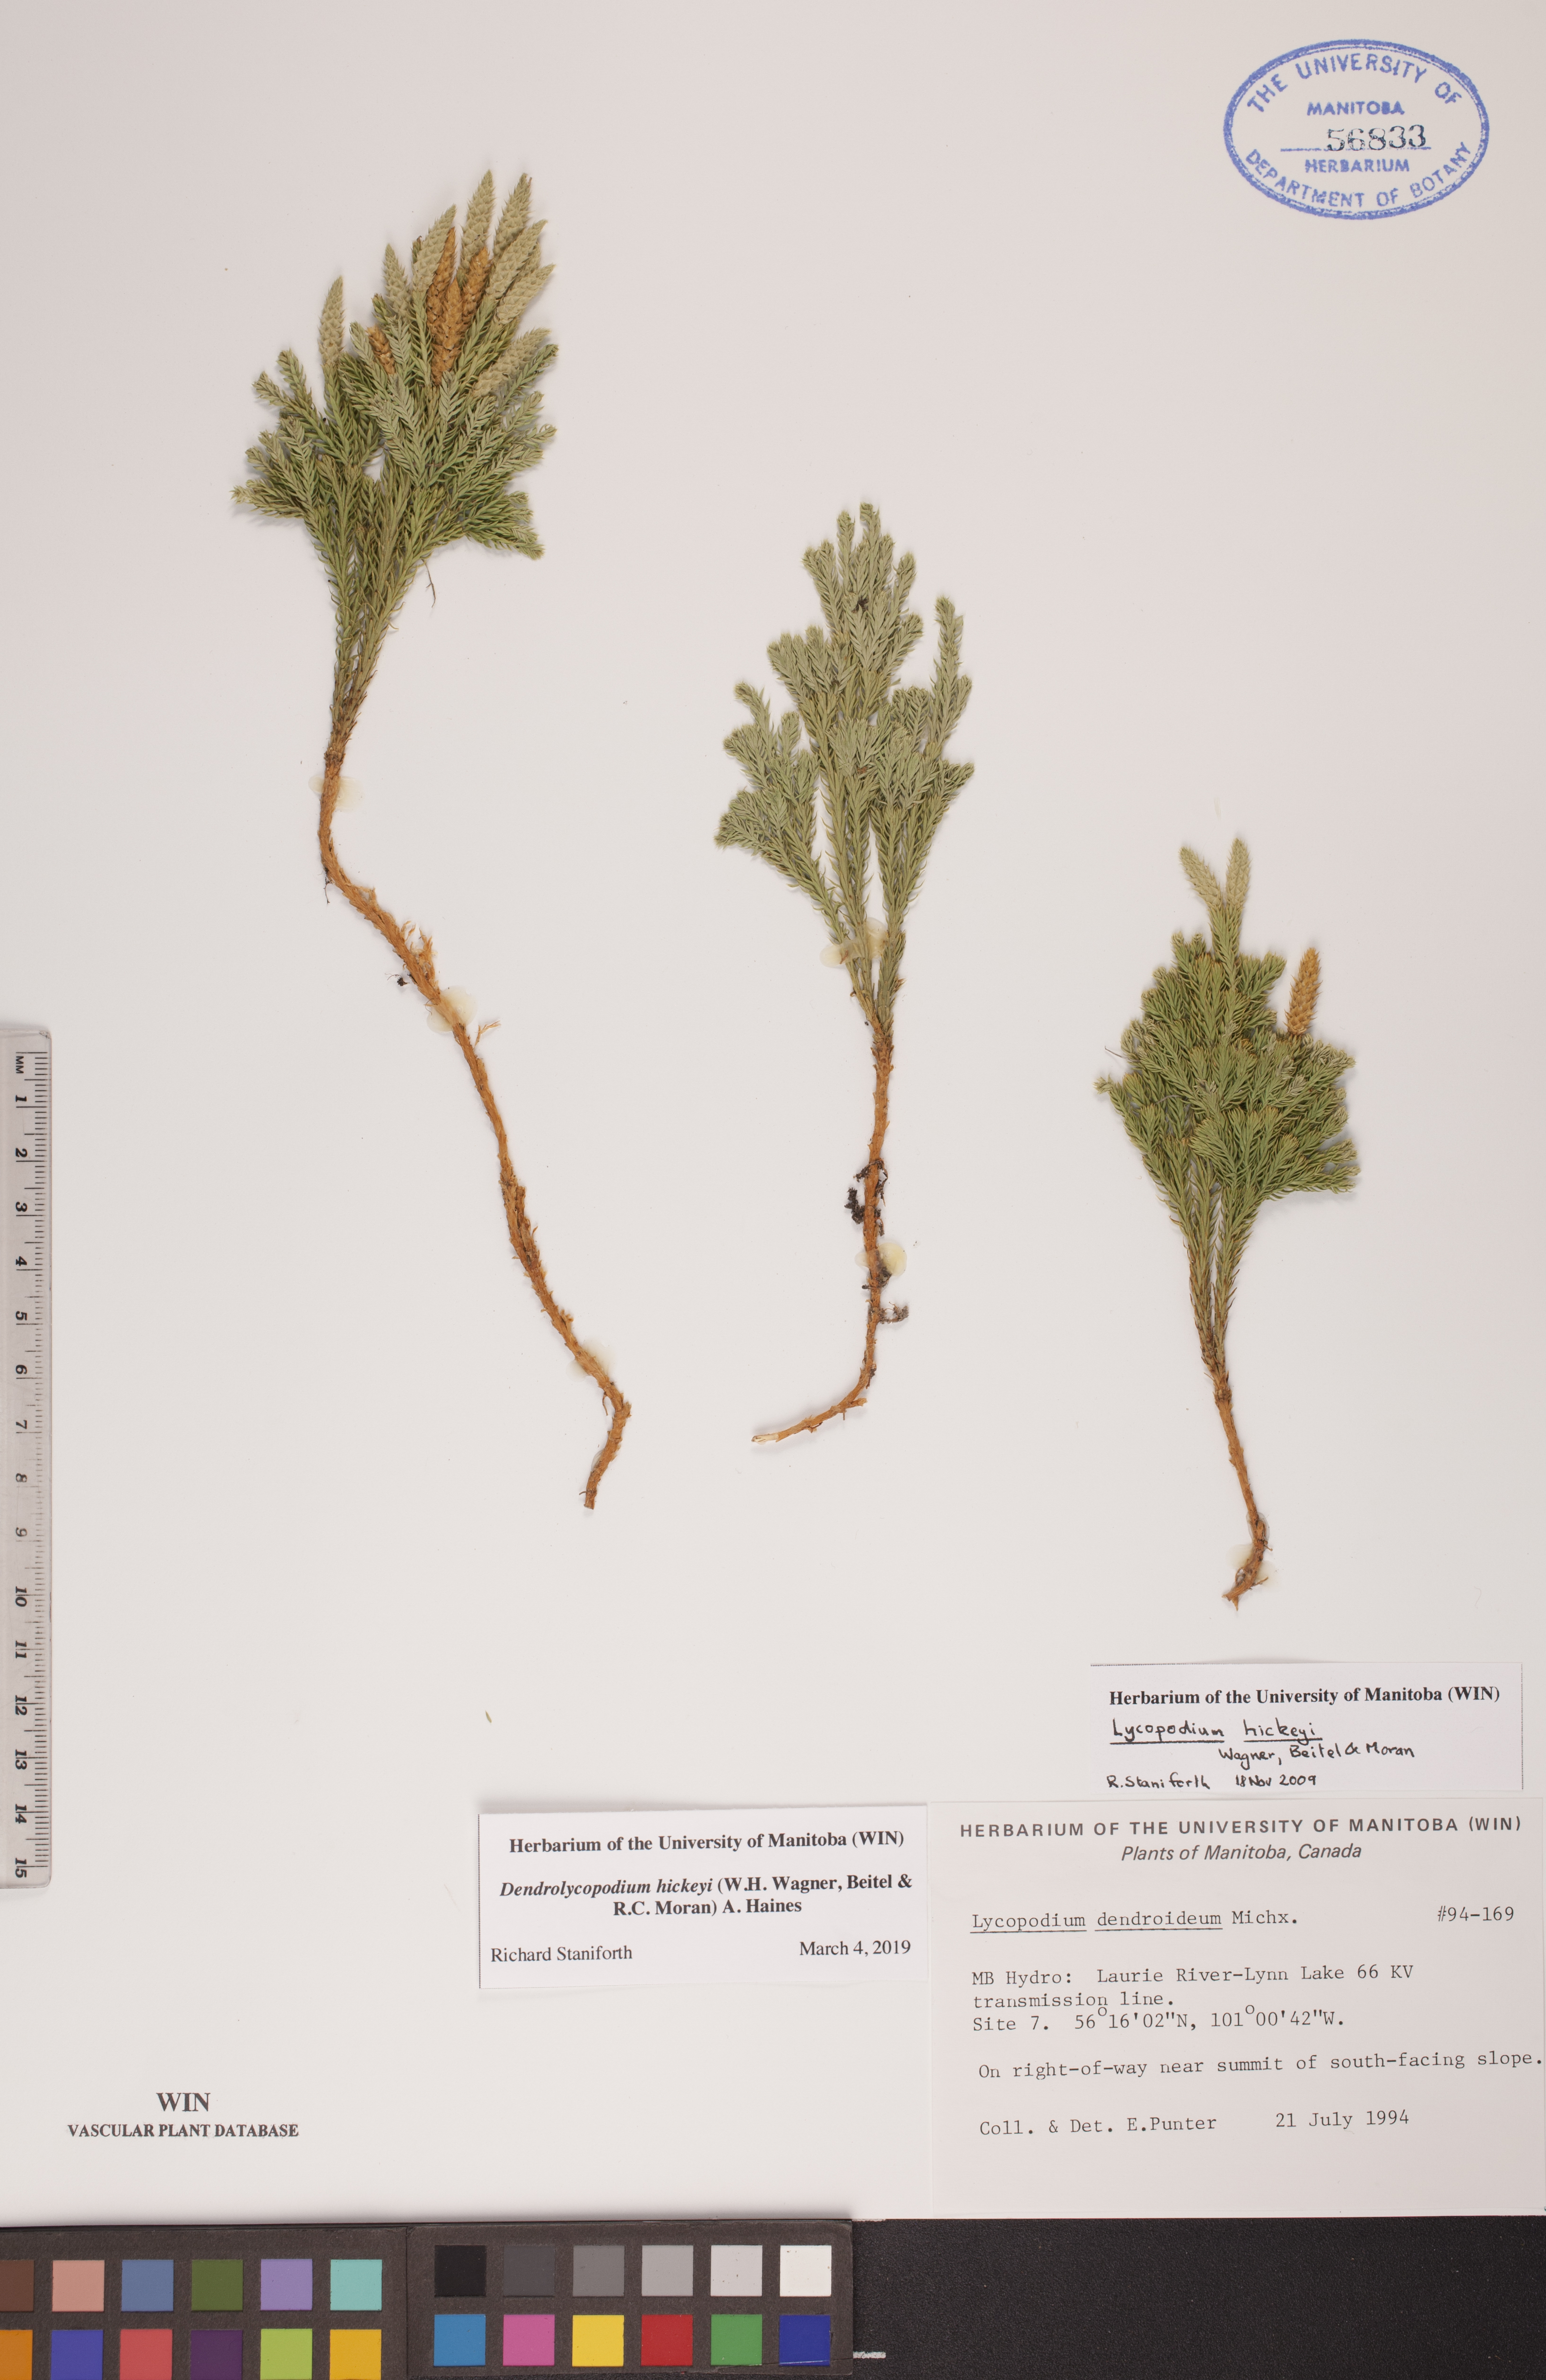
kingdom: Plantae
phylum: Tracheophyta
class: Lycopodiopsida
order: Lycopodiales
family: Lycopodiaceae
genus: Dendrolycopodium
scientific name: Dendrolycopodium hickeyi
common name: Hickey's clubmoss
